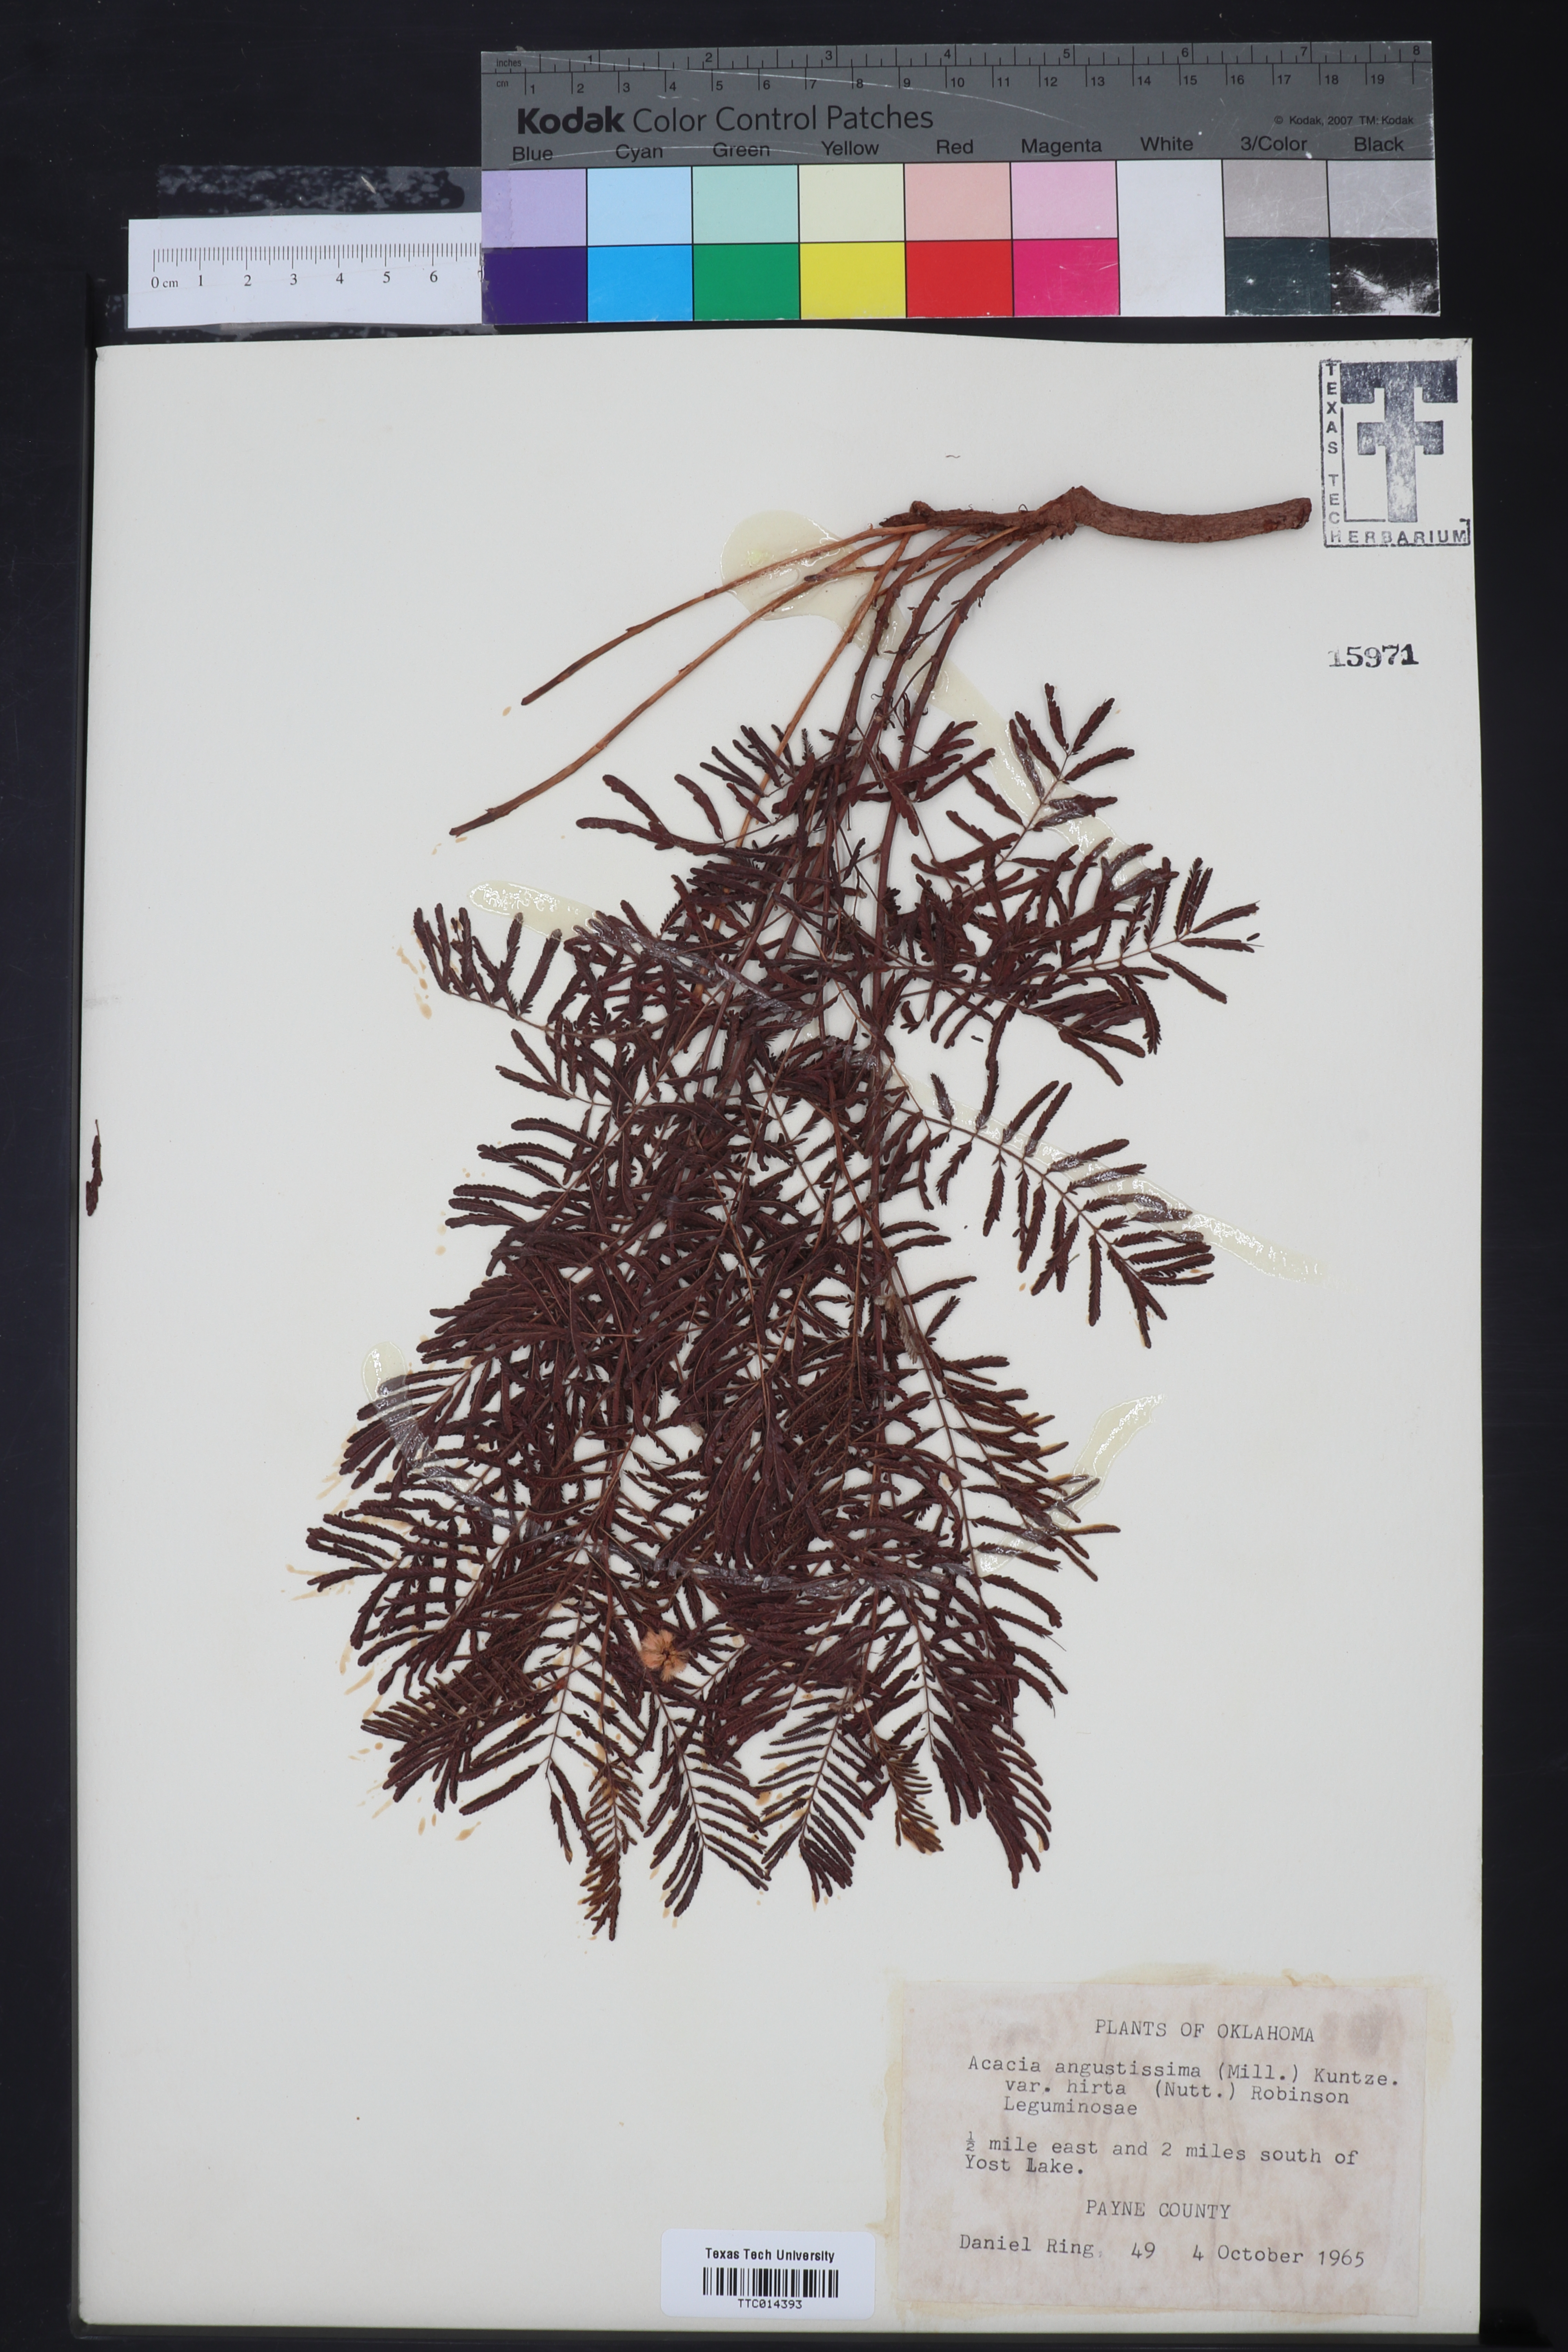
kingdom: Plantae
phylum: Tracheophyta
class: Magnoliopsida
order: Fabales
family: Fabaceae
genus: Acaciella
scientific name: Acaciella angustissima
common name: Prairie acacia
